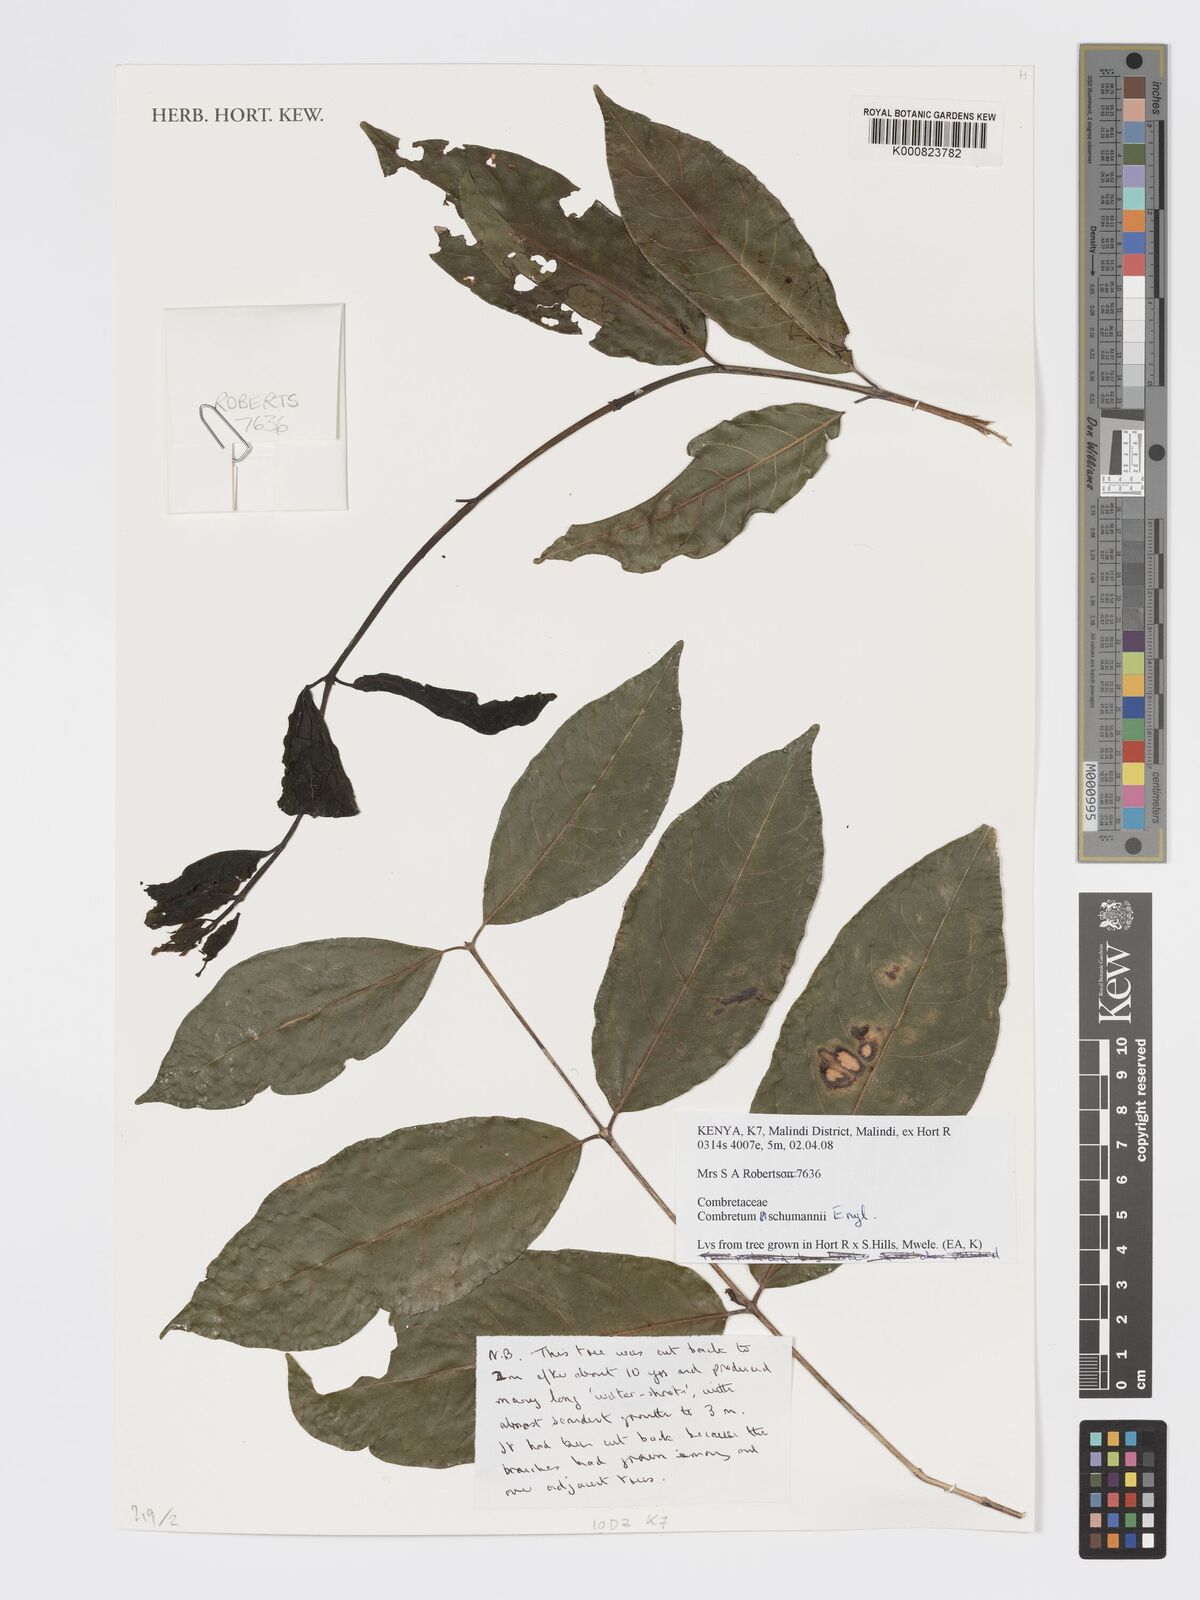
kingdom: Plantae
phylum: Tracheophyta
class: Magnoliopsida
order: Myrtales
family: Combretaceae
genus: Combretum
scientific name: Combretum schumannii
